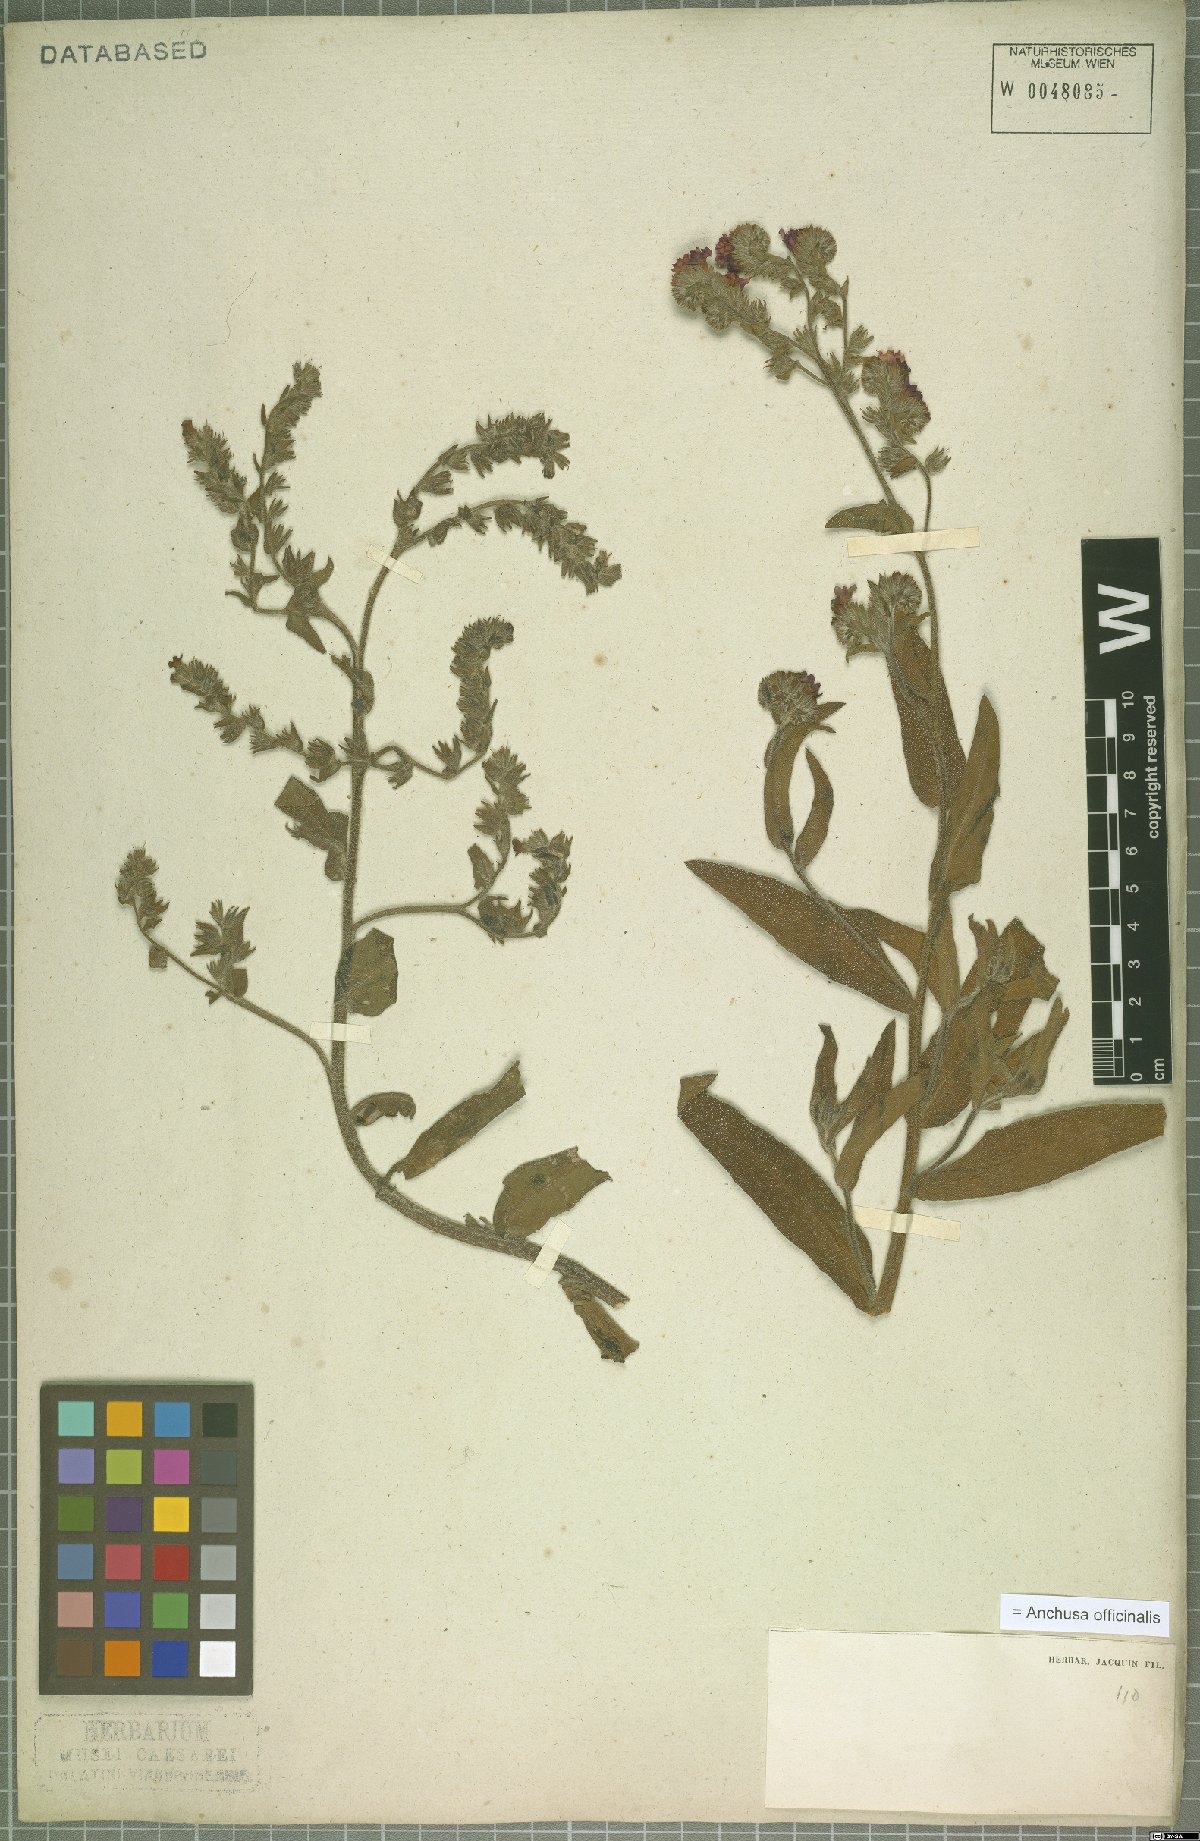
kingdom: Plantae
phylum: Tracheophyta
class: Magnoliopsida
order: Boraginales
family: Boraginaceae
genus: Anchusa
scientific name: Anchusa officinalis
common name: Alkanet
